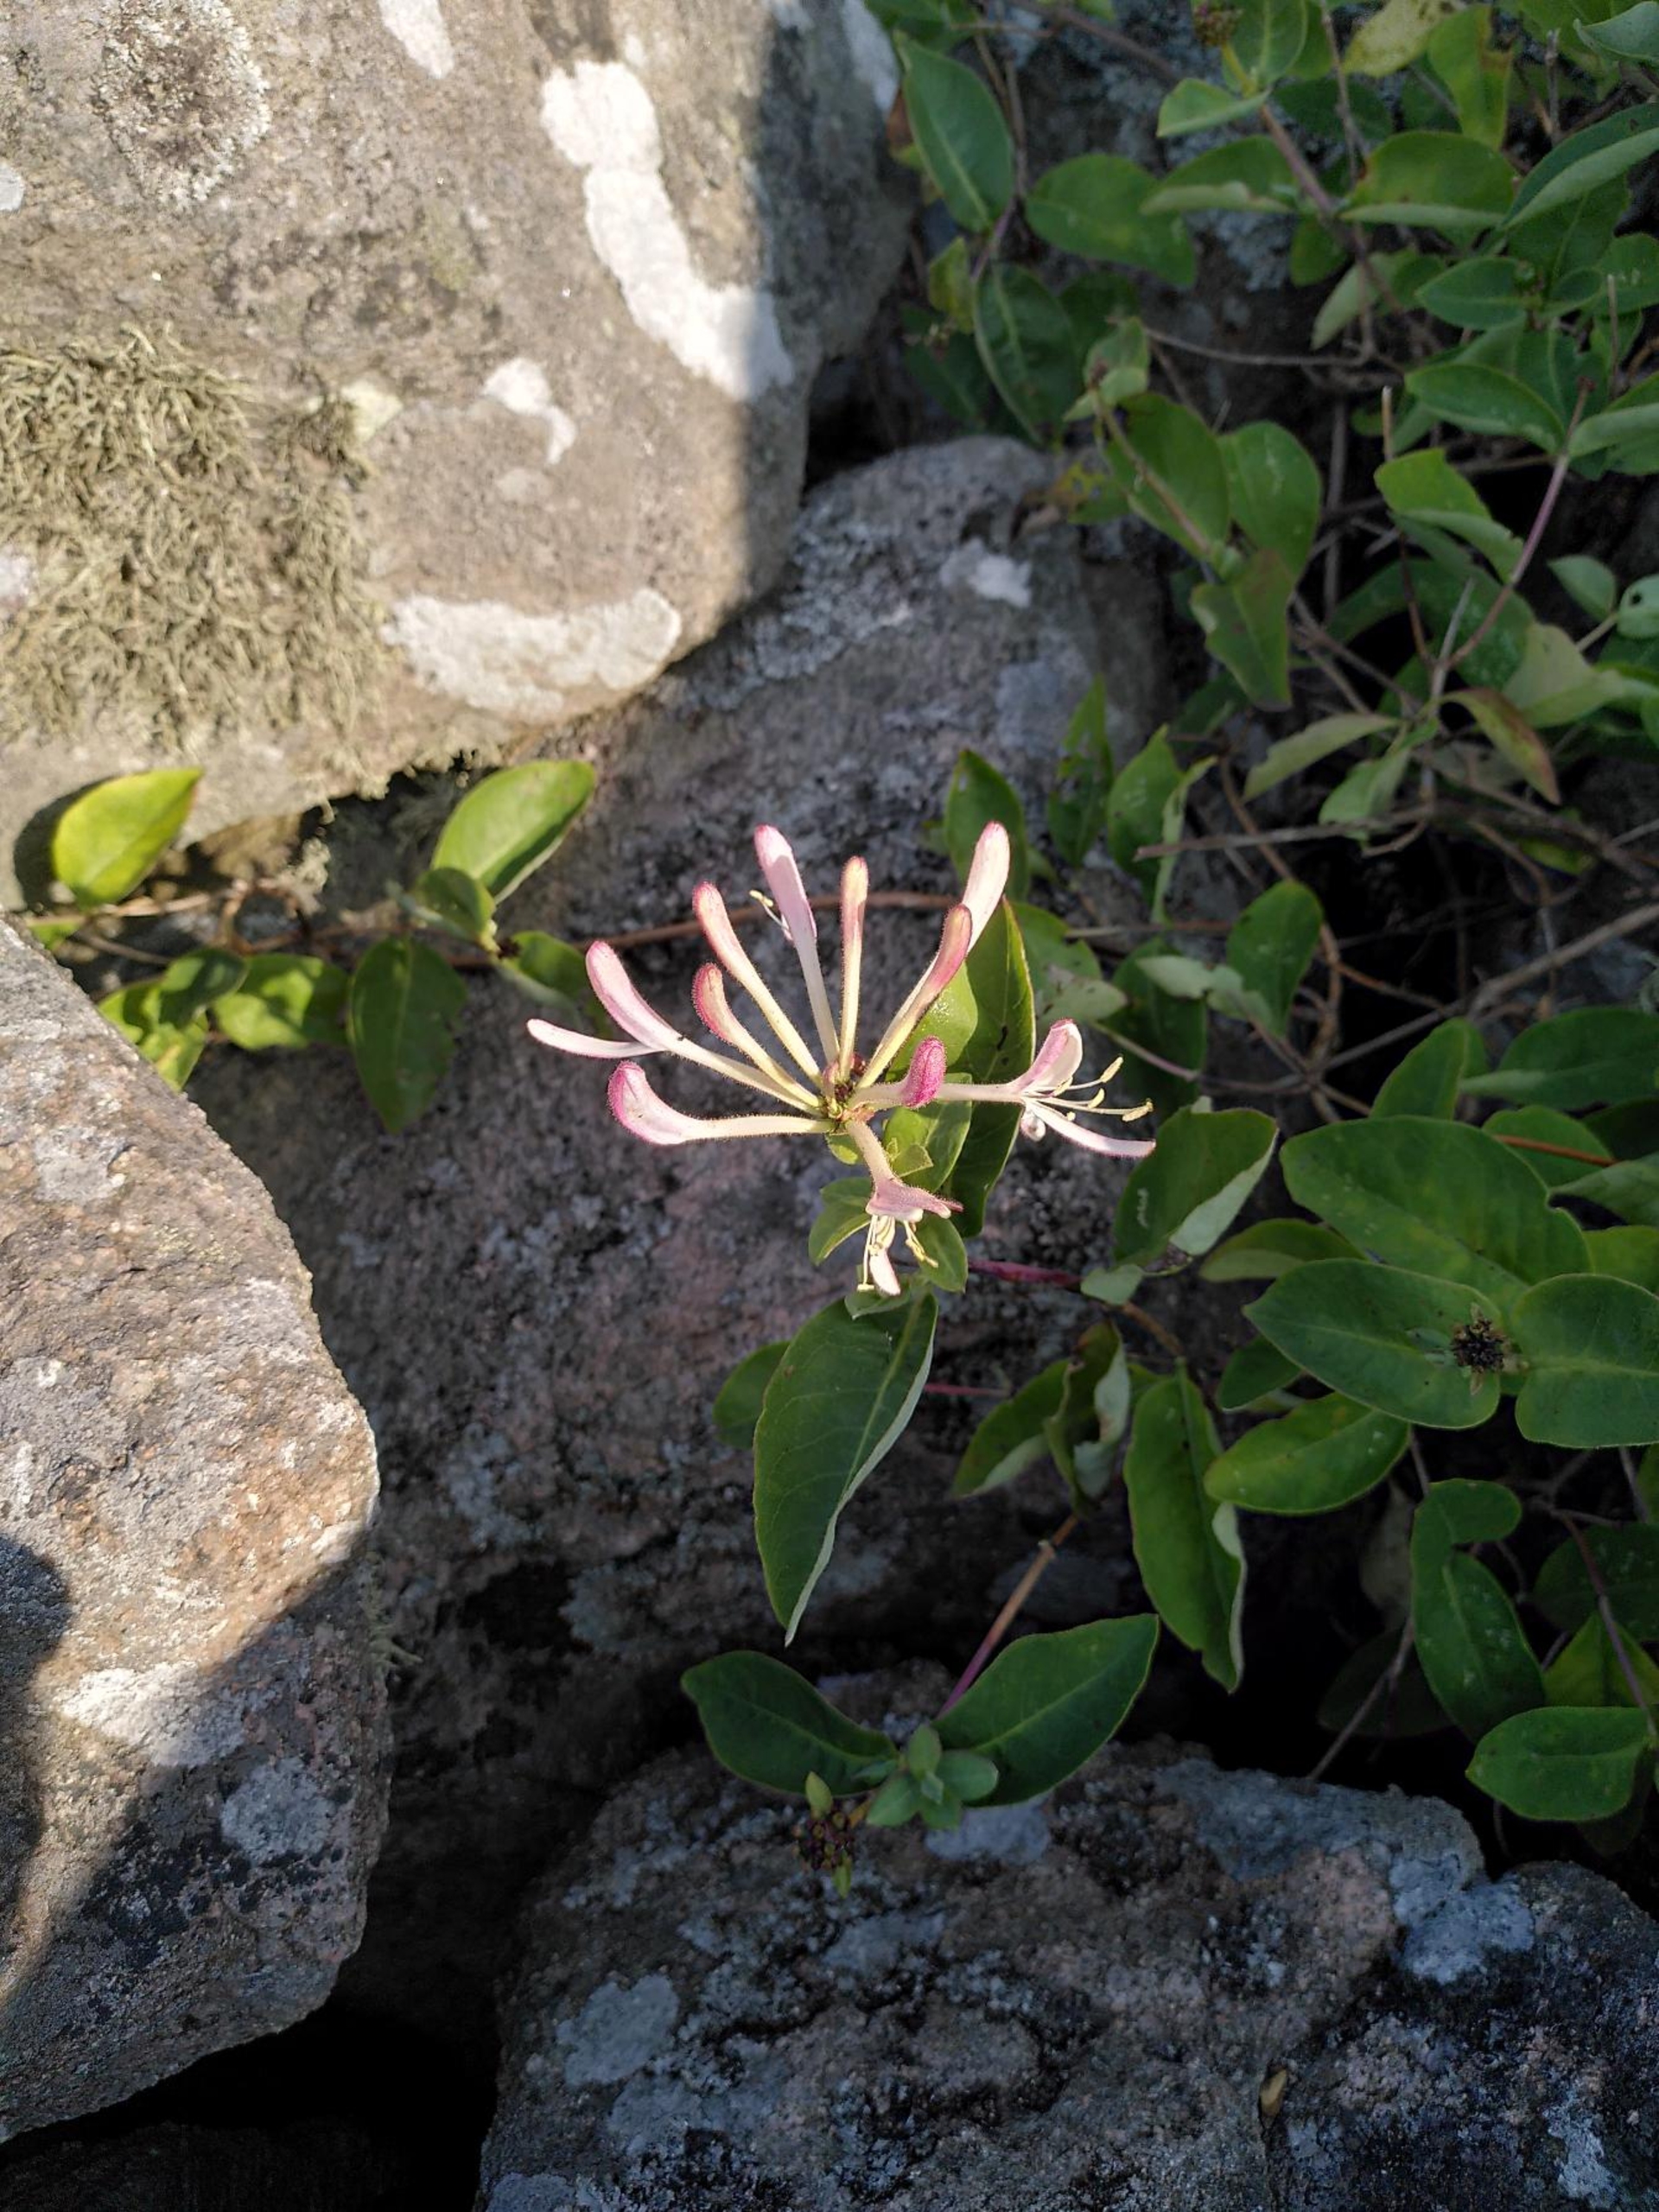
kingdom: Plantae
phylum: Tracheophyta
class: Magnoliopsida
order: Dipsacales
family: Caprifoliaceae
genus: Lonicera
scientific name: Lonicera periclymenum
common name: Almindelig gedeblad
